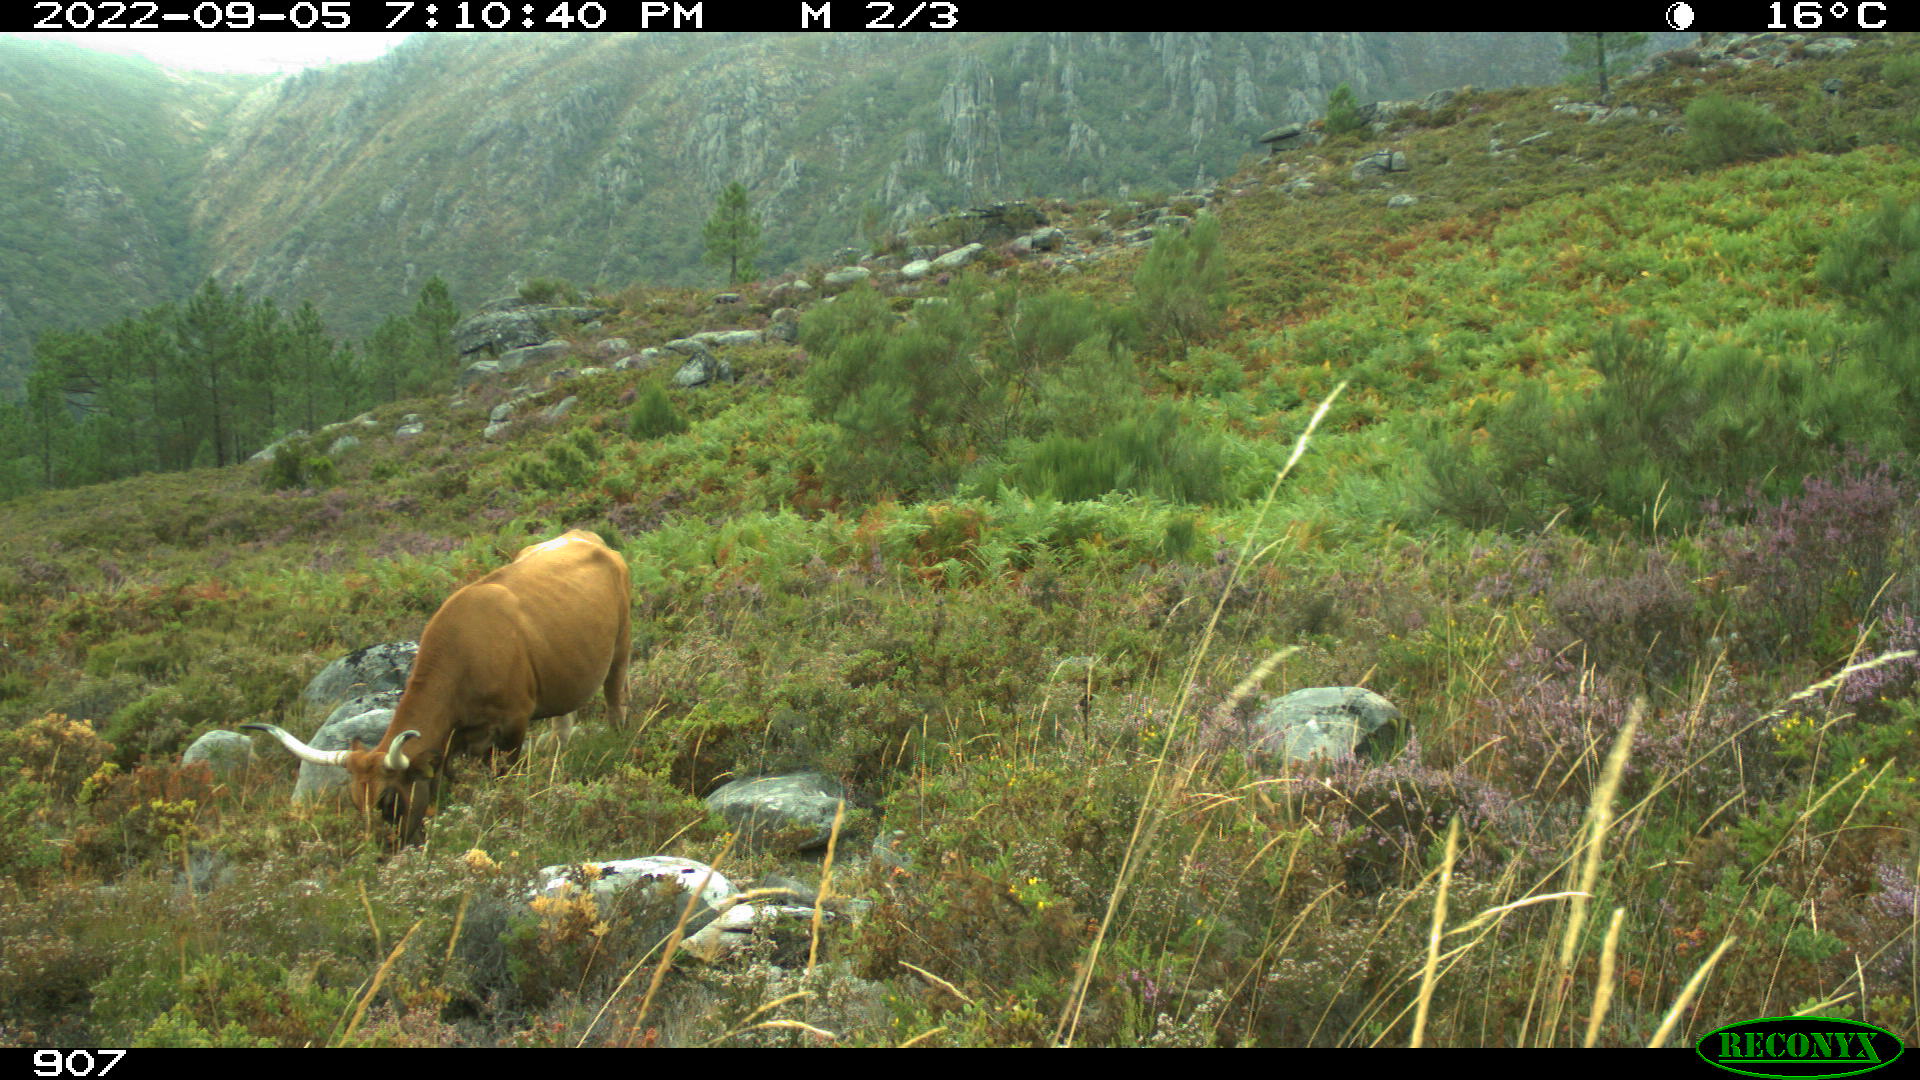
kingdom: Animalia
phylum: Chordata
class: Mammalia
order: Artiodactyla
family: Bovidae
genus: Bos
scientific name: Bos taurus
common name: Domesticated cattle
